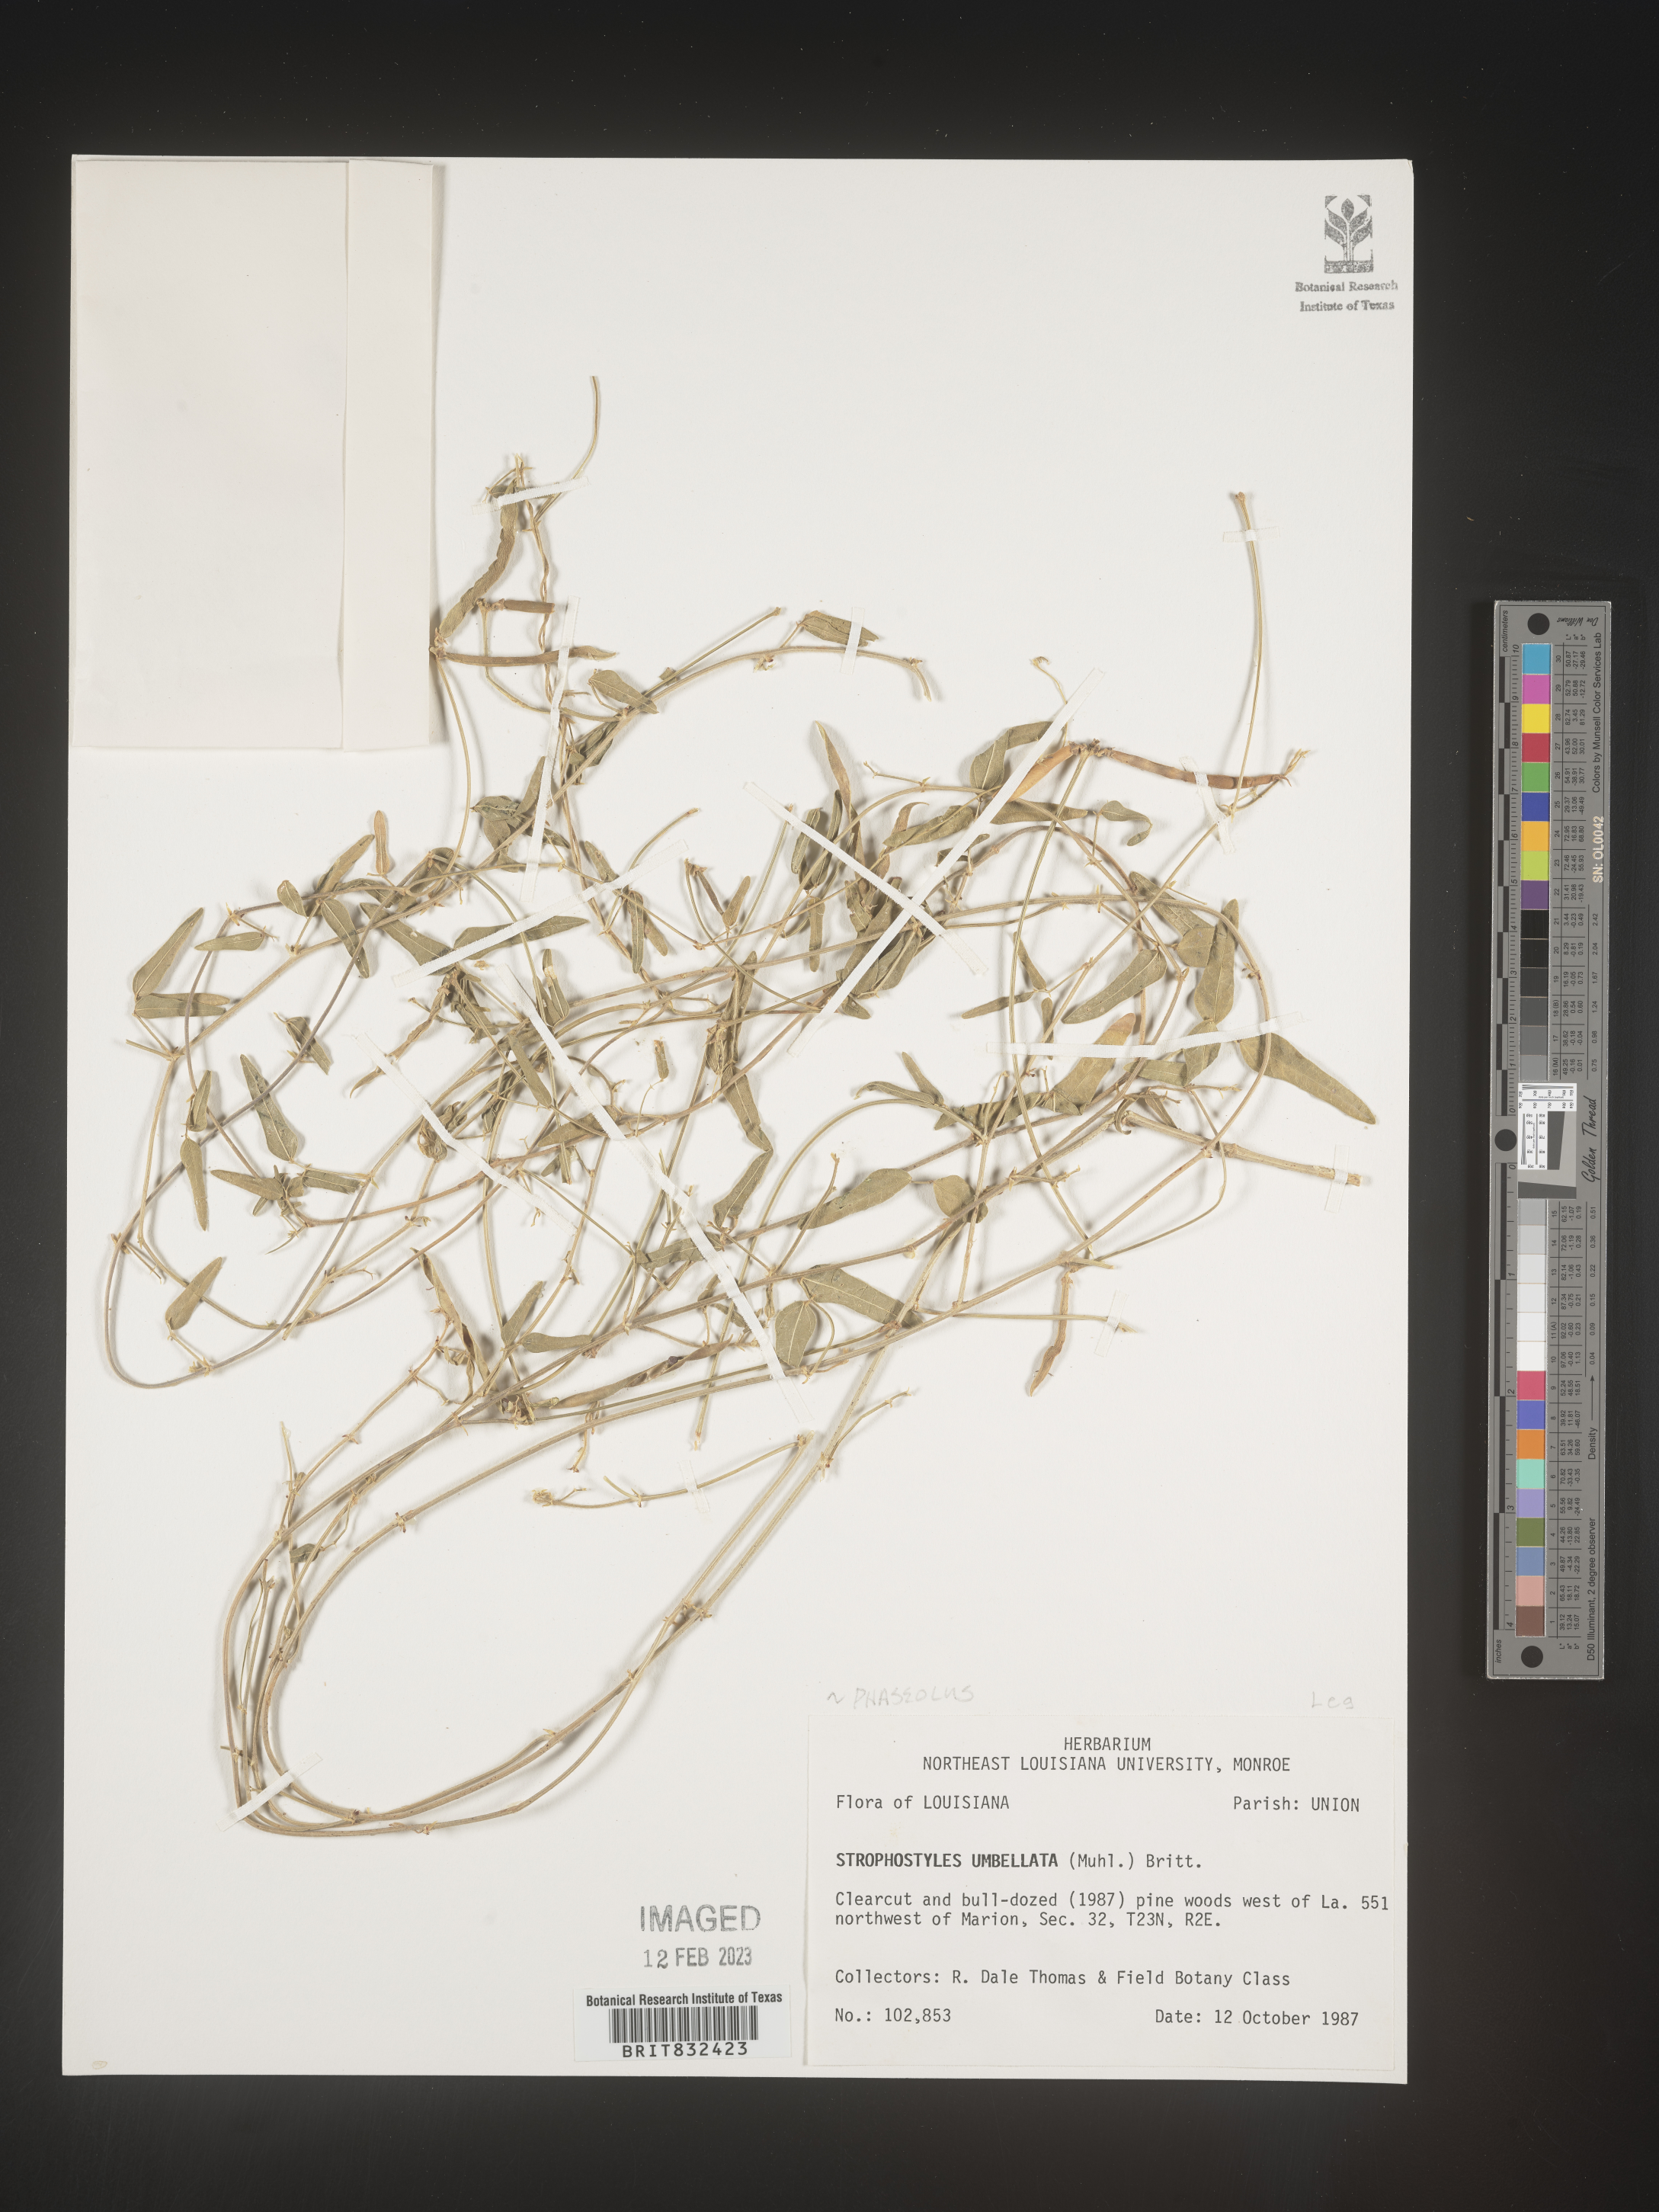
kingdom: Plantae
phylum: Tracheophyta
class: Magnoliopsida
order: Fabales
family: Fabaceae
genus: Strophostyles
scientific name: Strophostyles umbellata
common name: Perennial wild bean
